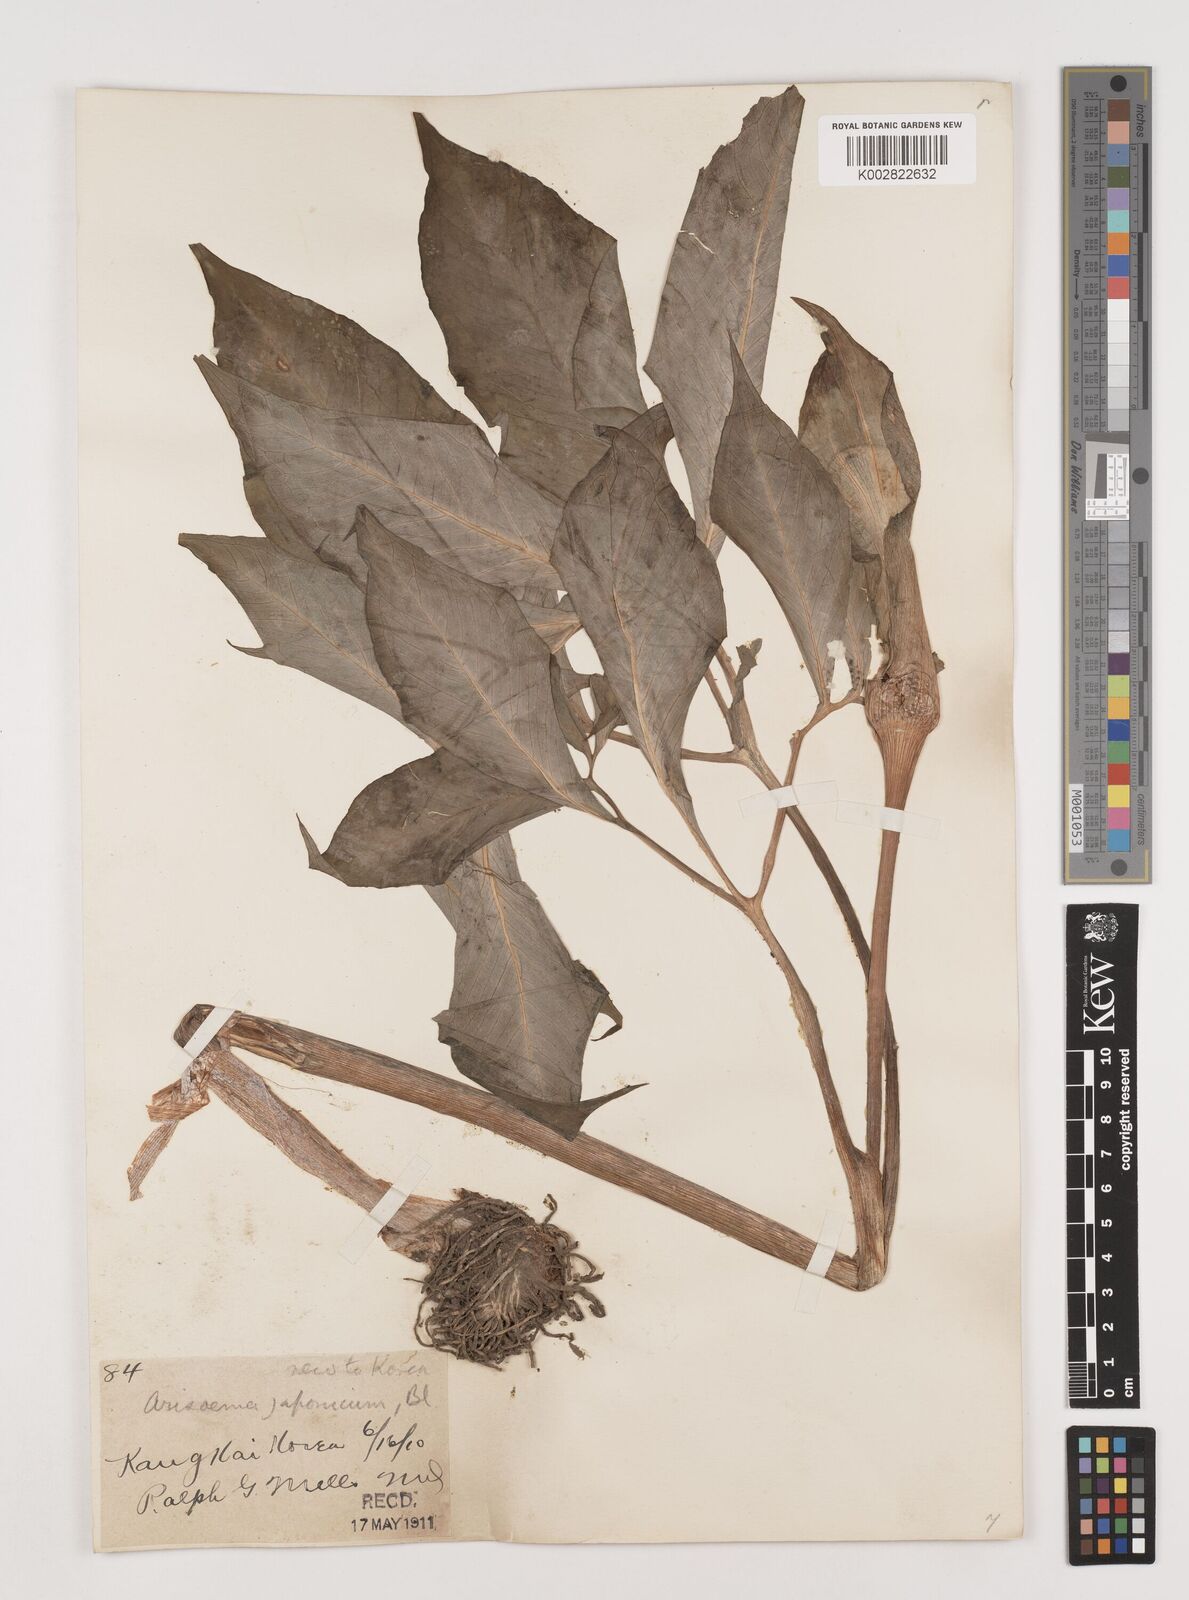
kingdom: Plantae
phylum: Tracheophyta
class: Liliopsida
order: Alismatales
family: Araceae
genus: Arisaema
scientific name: Arisaema serratum
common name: Japanese arisaema
